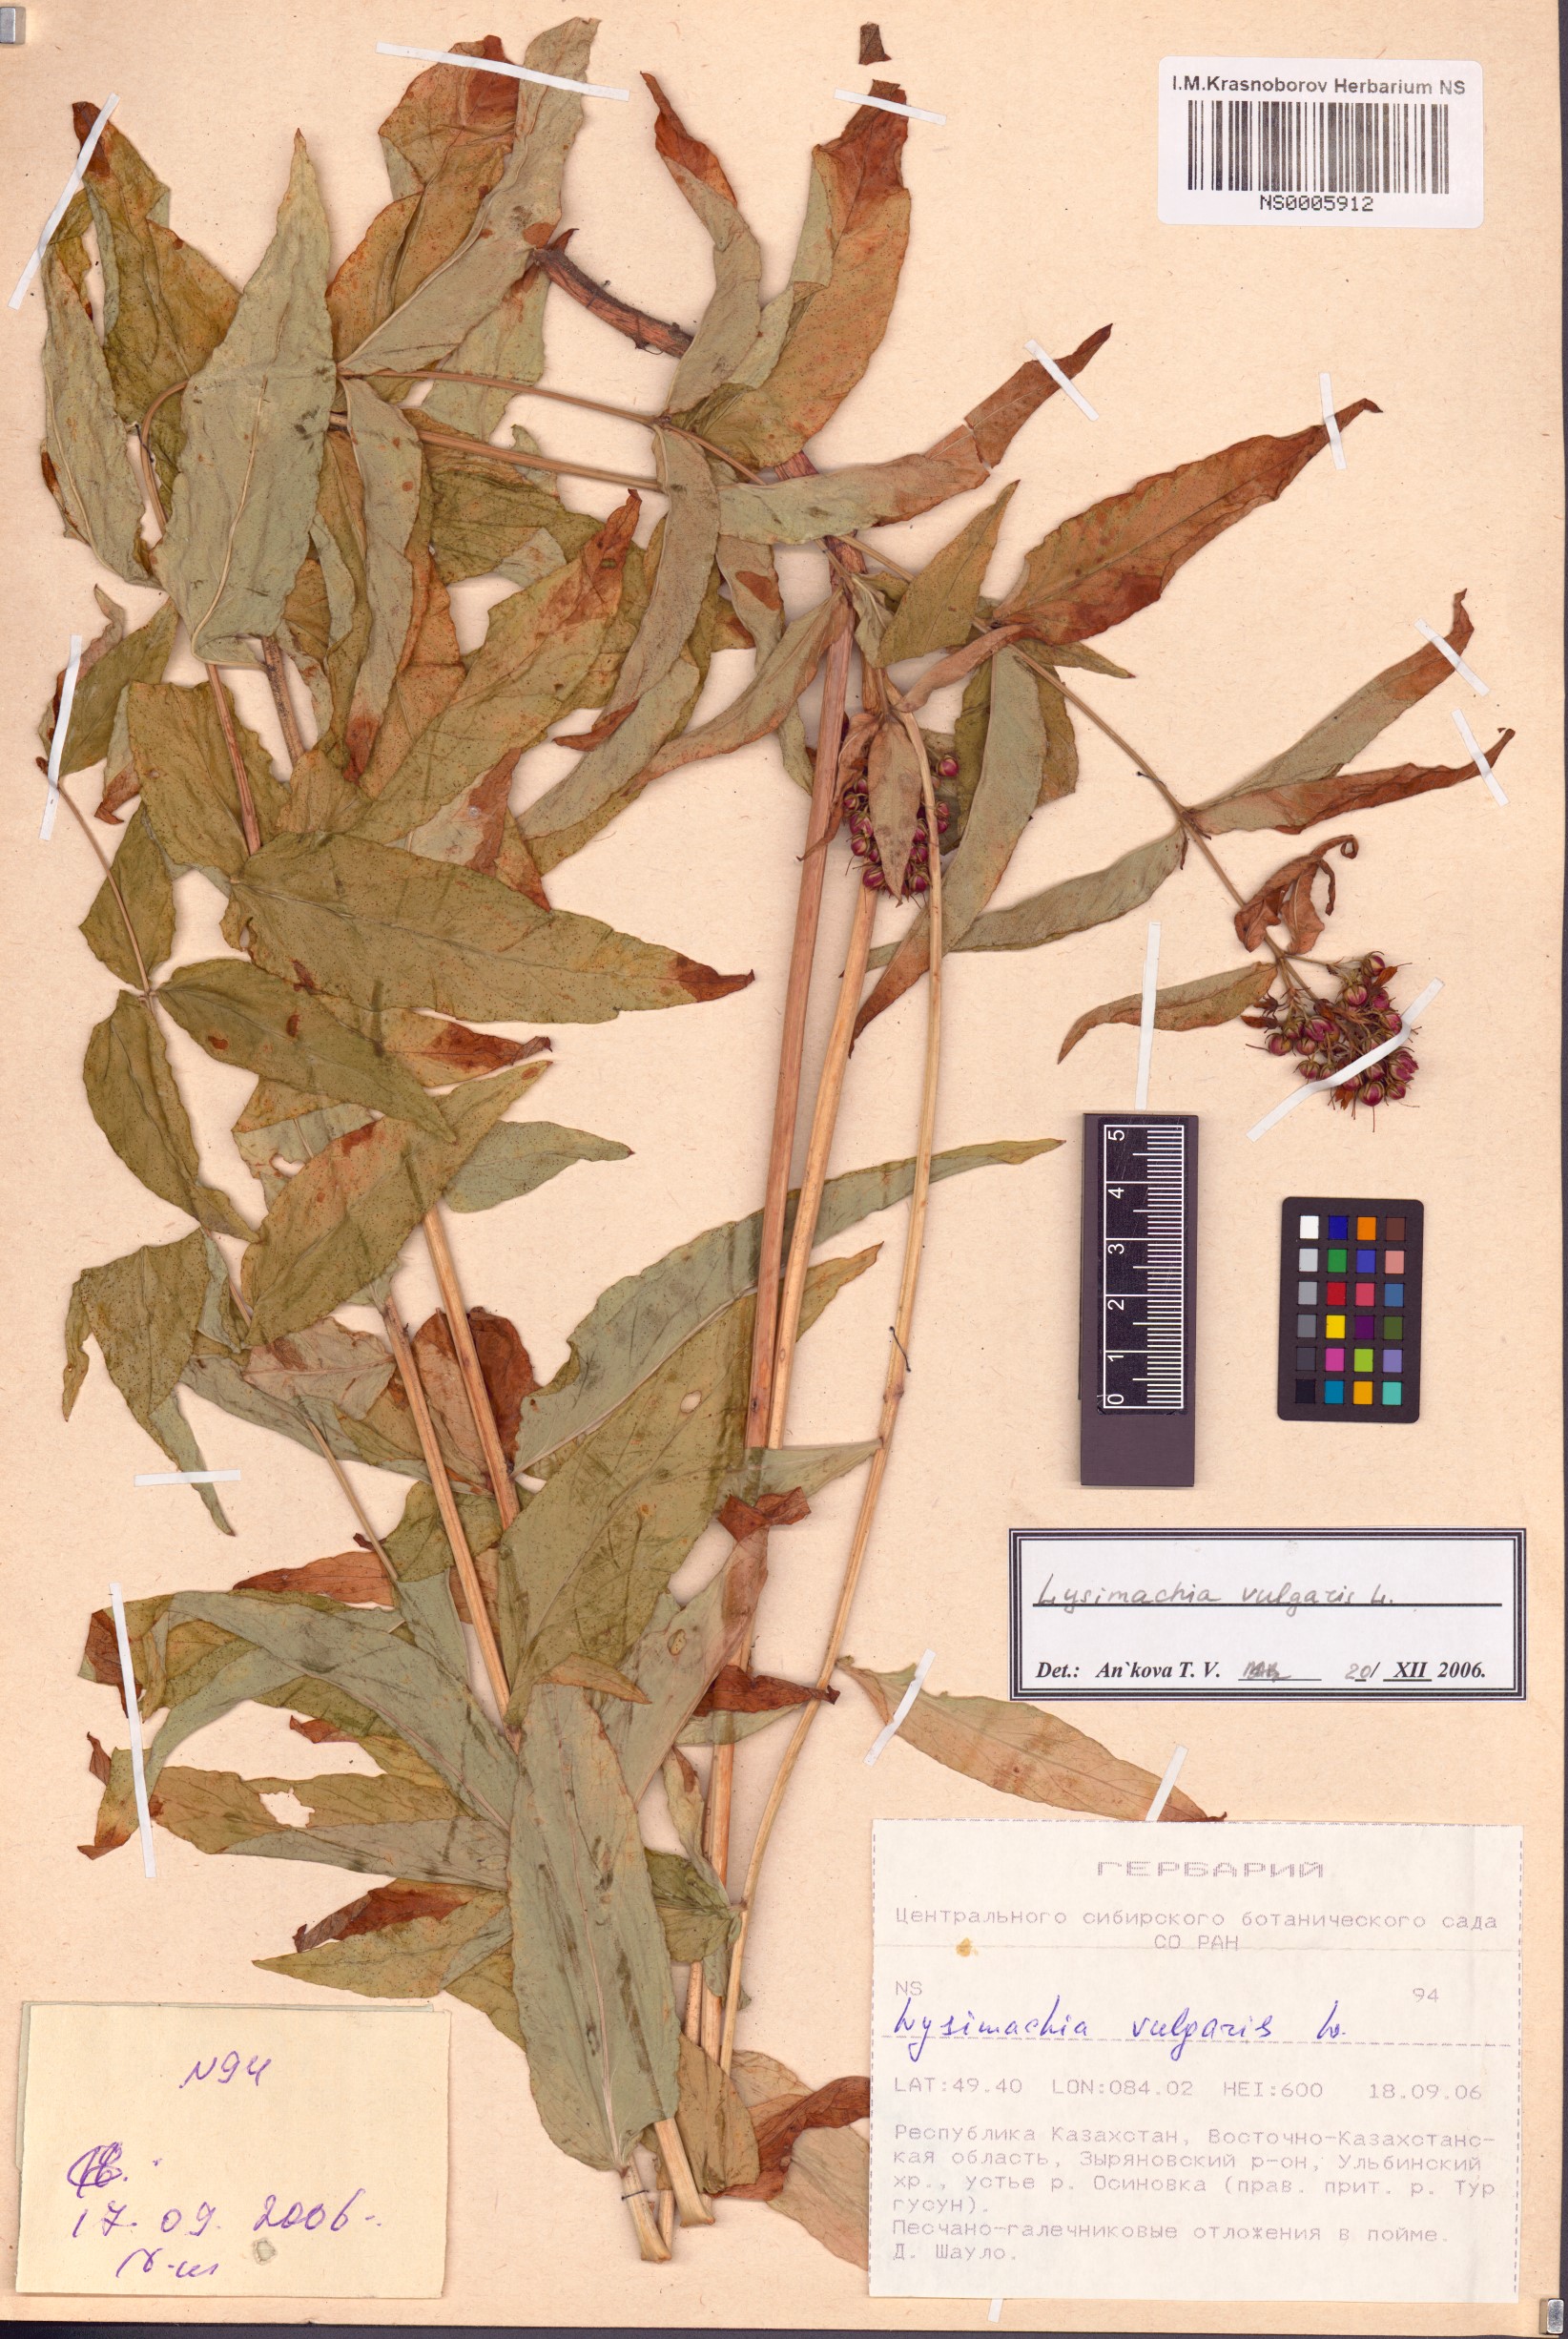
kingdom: Plantae
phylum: Tracheophyta
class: Magnoliopsida
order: Ericales
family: Primulaceae
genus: Lysimachia
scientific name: Lysimachia vulgaris
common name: Yellow loosestrife
